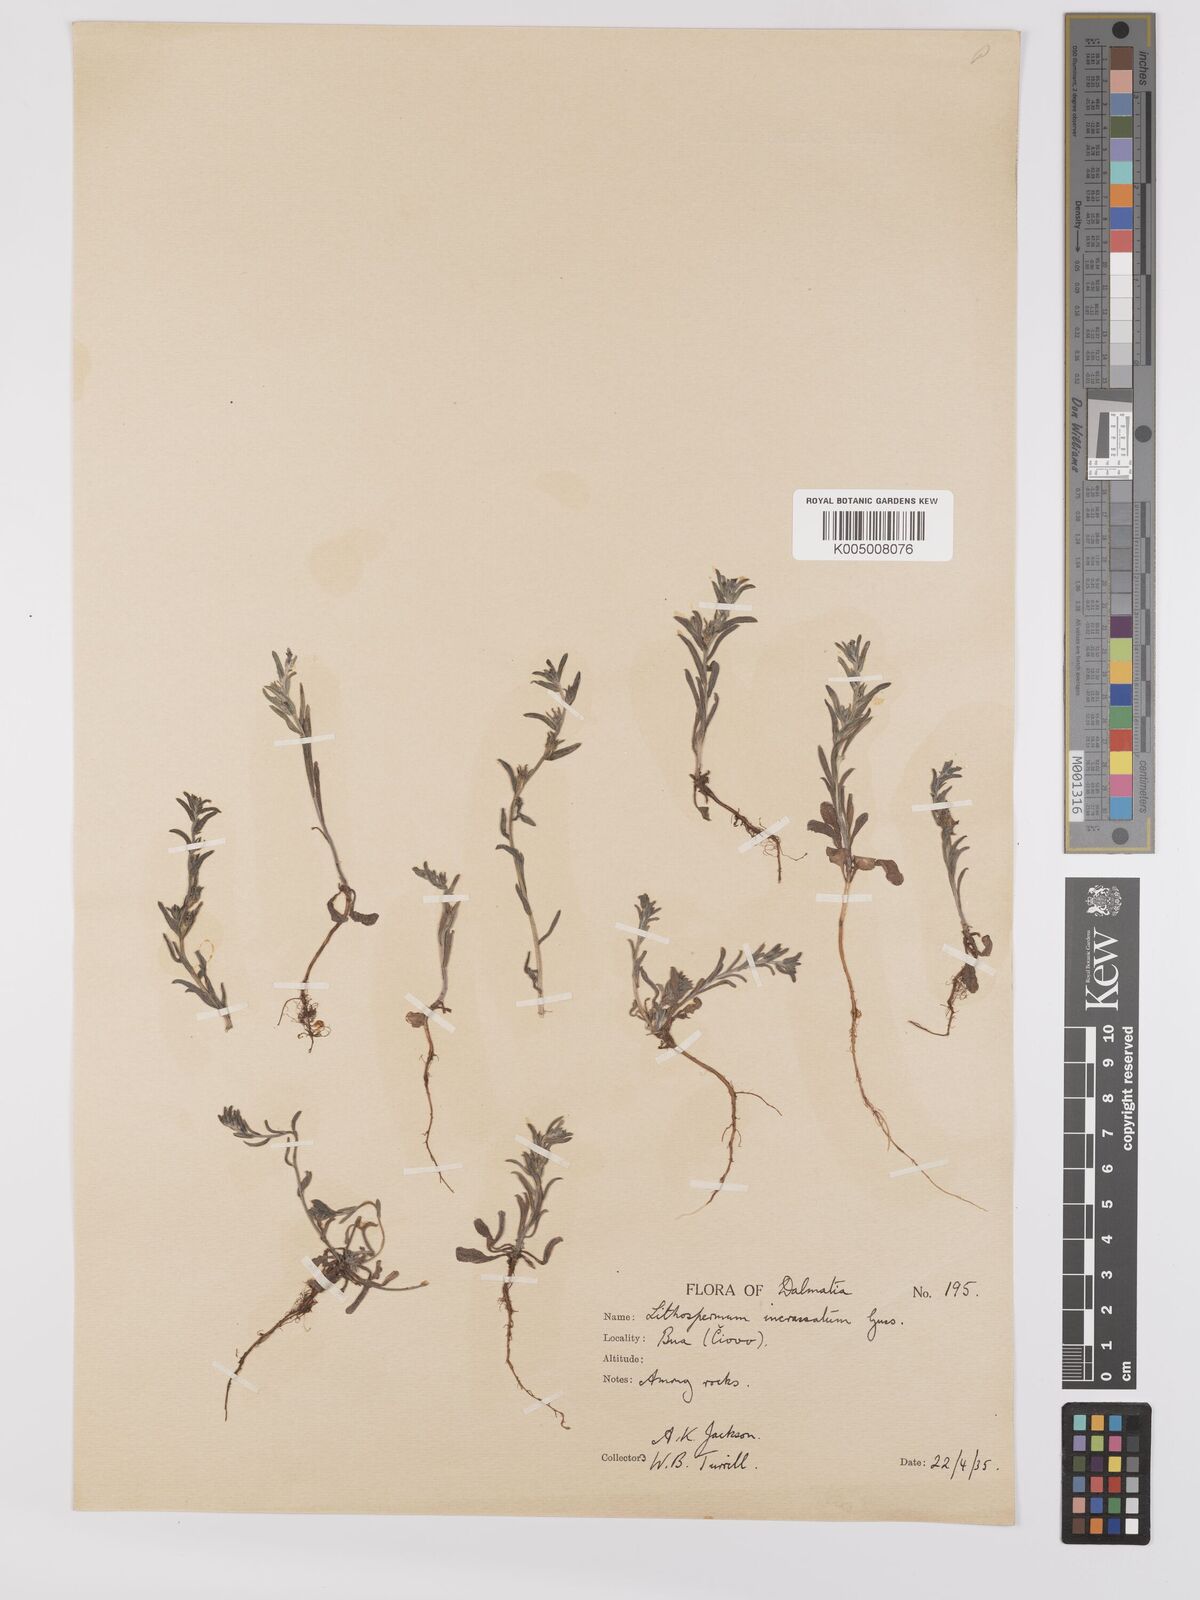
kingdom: Plantae
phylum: Tracheophyta
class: Magnoliopsida
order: Boraginales
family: Boraginaceae
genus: Buglossoides
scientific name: Buglossoides incrassata
